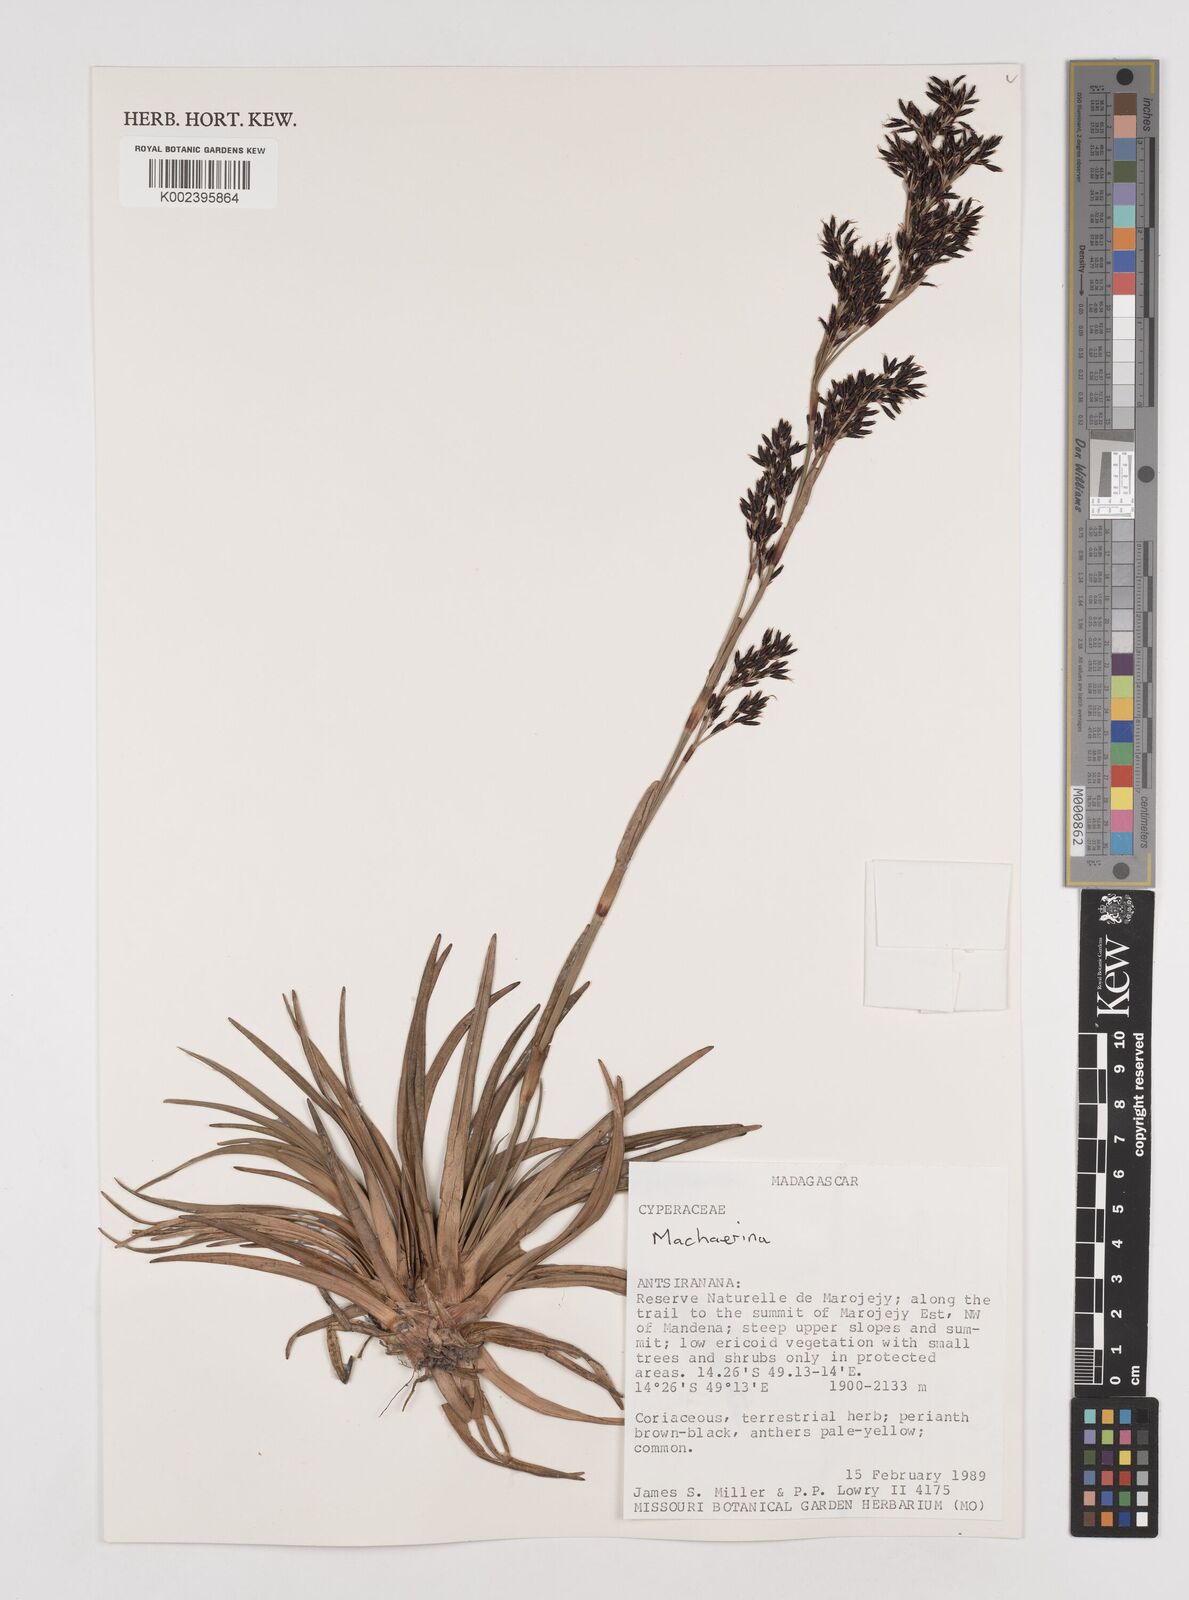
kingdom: Plantae
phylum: Tracheophyta
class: Liliopsida
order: Poales
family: Cyperaceae
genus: Machaerina
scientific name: Machaerina
